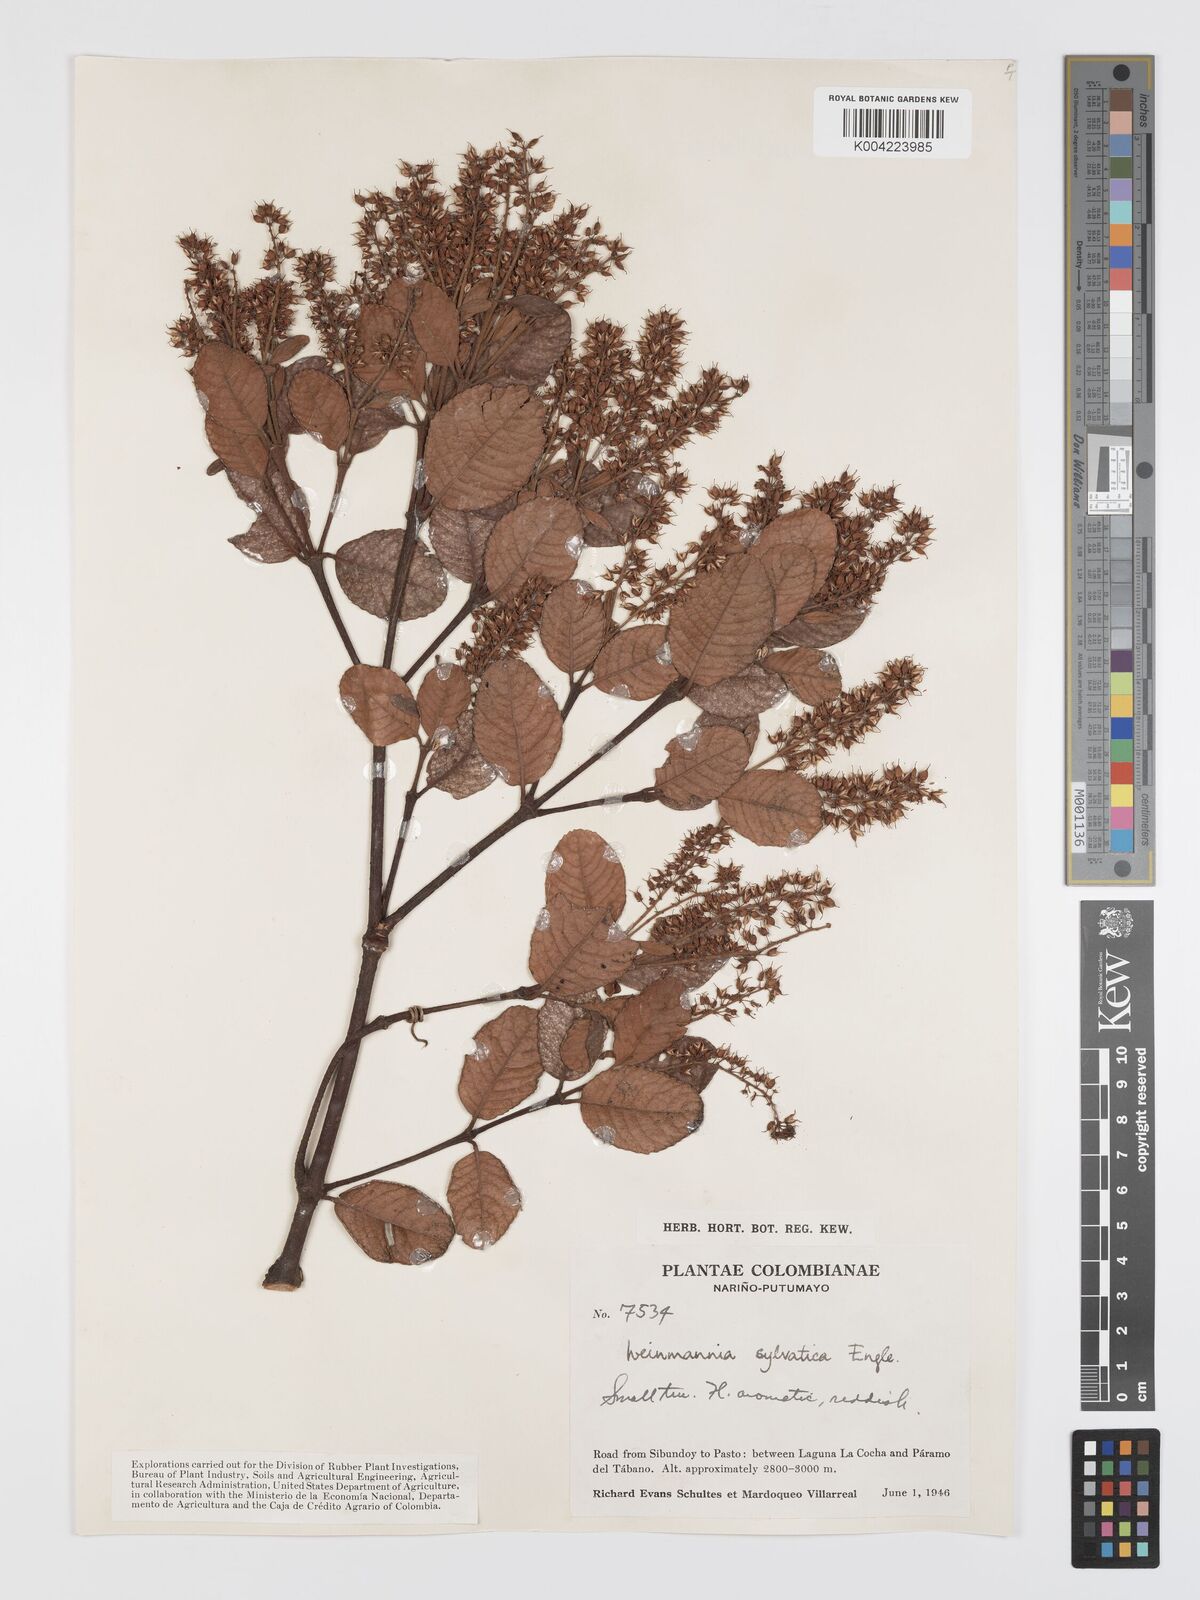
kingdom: Plantae
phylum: Tracheophyta
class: Magnoliopsida
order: Oxalidales
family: Cunoniaceae
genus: Weinmannia
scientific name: Weinmannia auriculata
